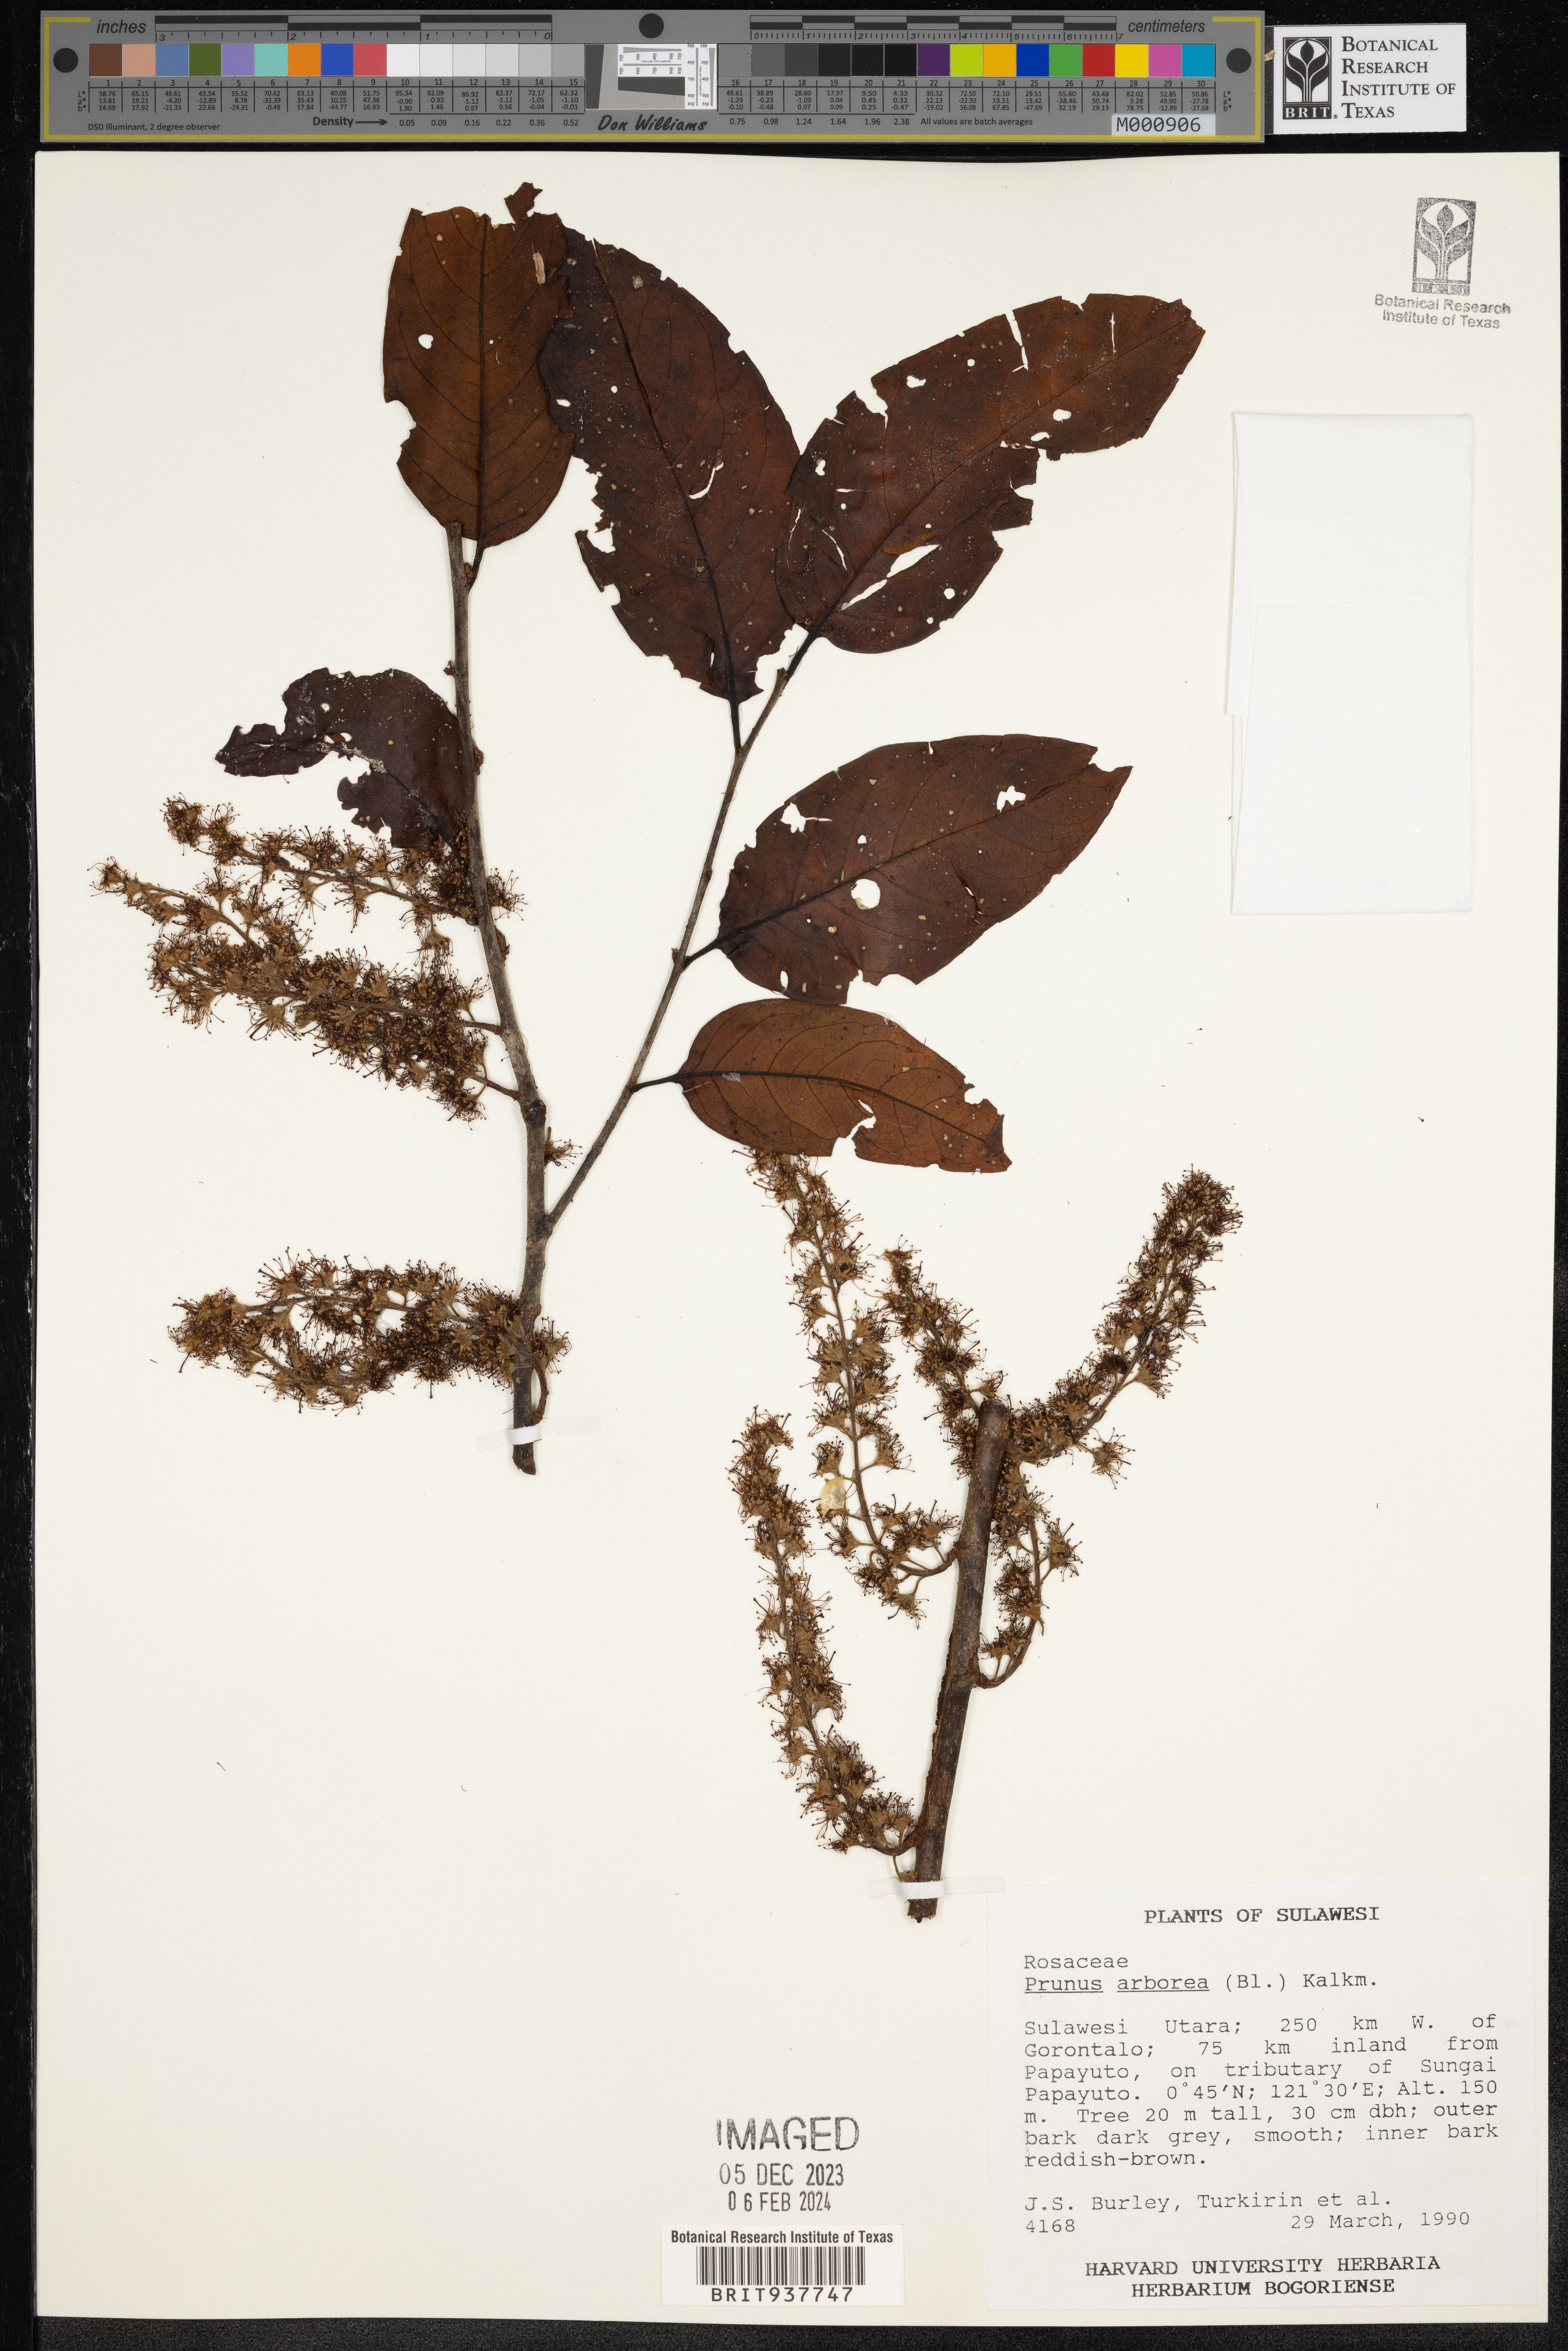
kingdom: Plantae
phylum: Tracheophyta
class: Magnoliopsida
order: Rosales
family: Rosaceae
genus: Prunus
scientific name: Prunus
